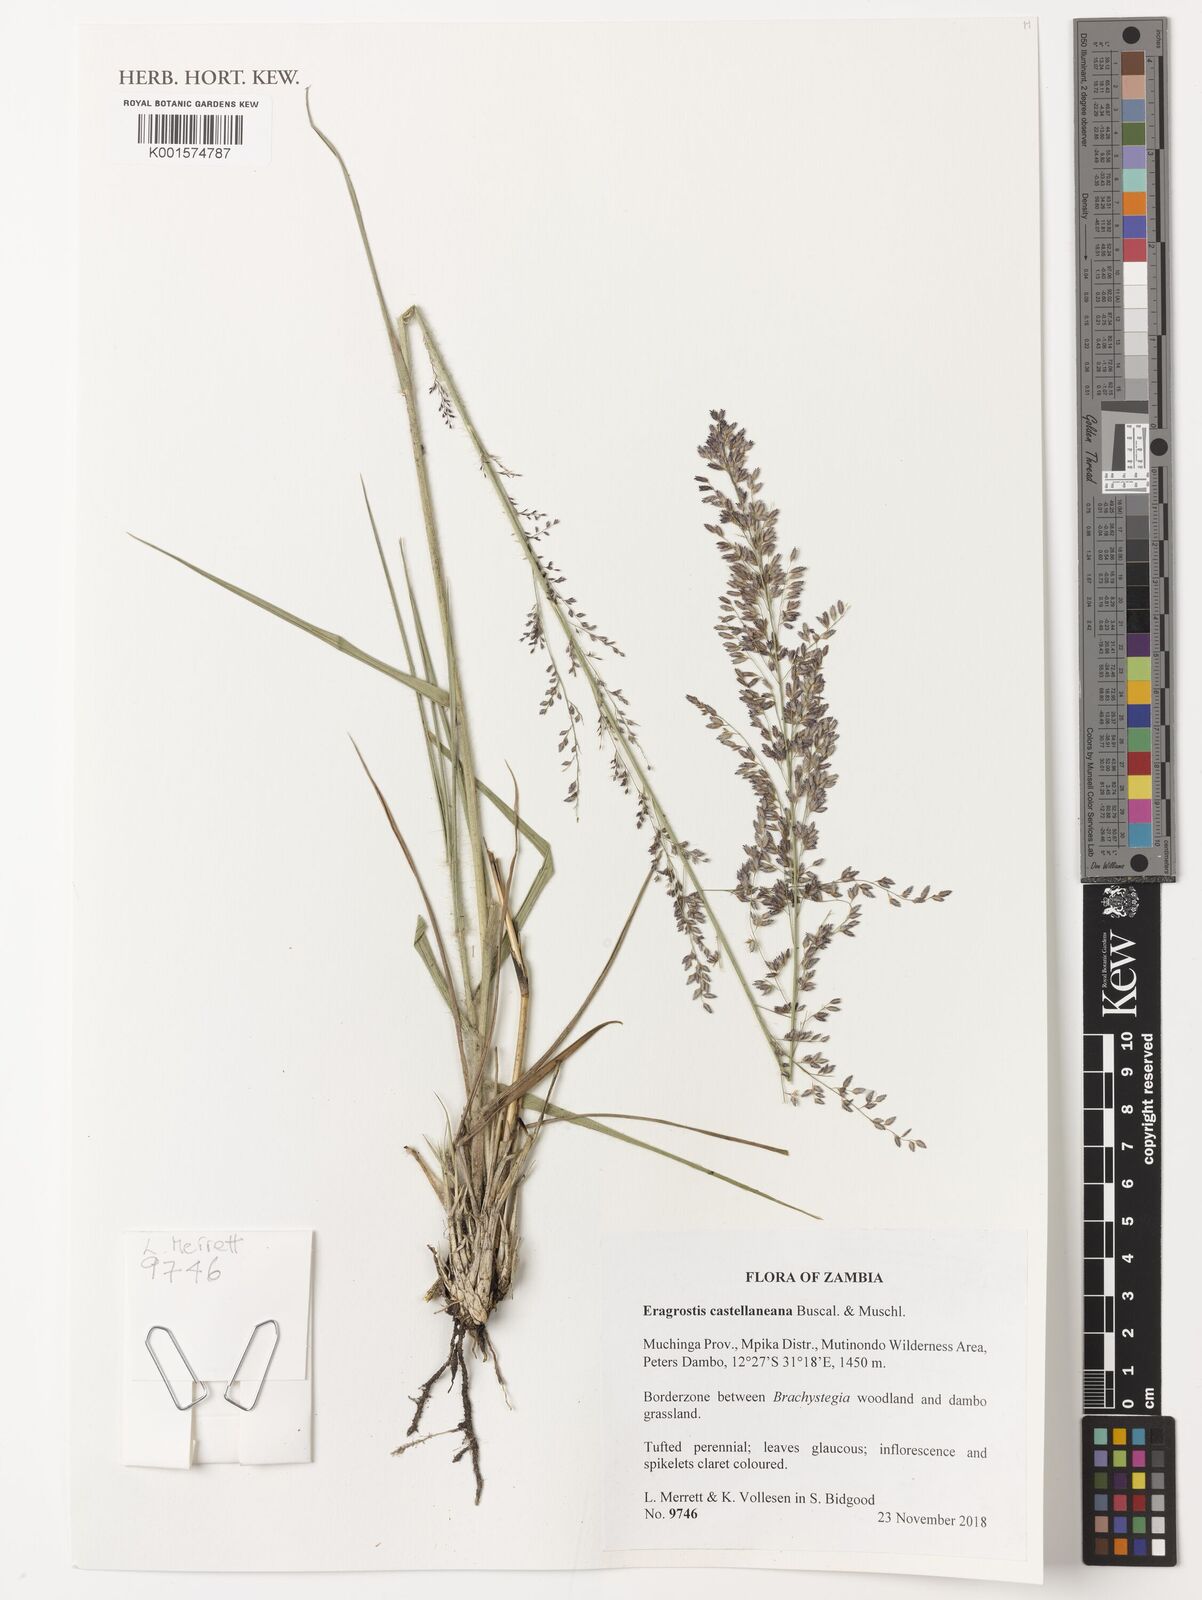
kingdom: Plantae
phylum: Tracheophyta
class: Liliopsida
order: Poales
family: Poaceae
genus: Eragrostis
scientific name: Eragrostis castellaneana
